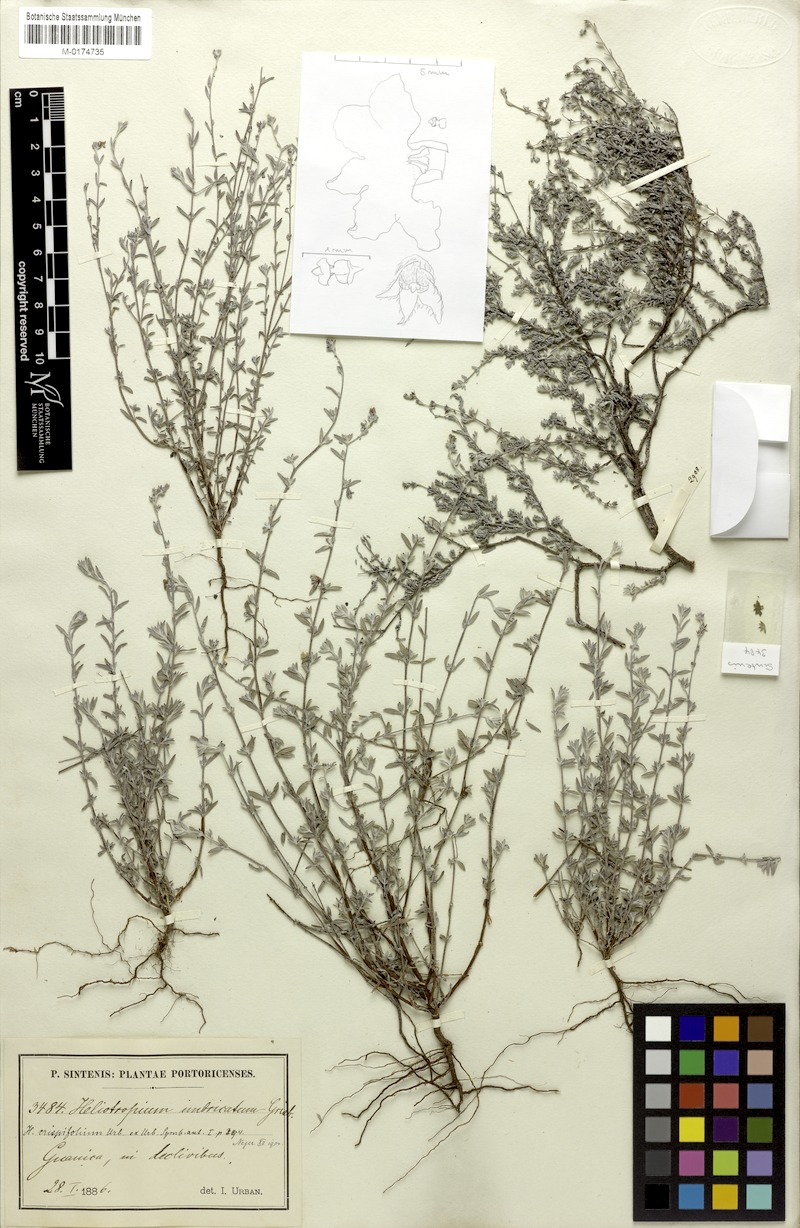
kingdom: Plantae
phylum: Tracheophyta
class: Magnoliopsida
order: Boraginales
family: Heliotropiaceae
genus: Euploca
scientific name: Euploca microphylla
